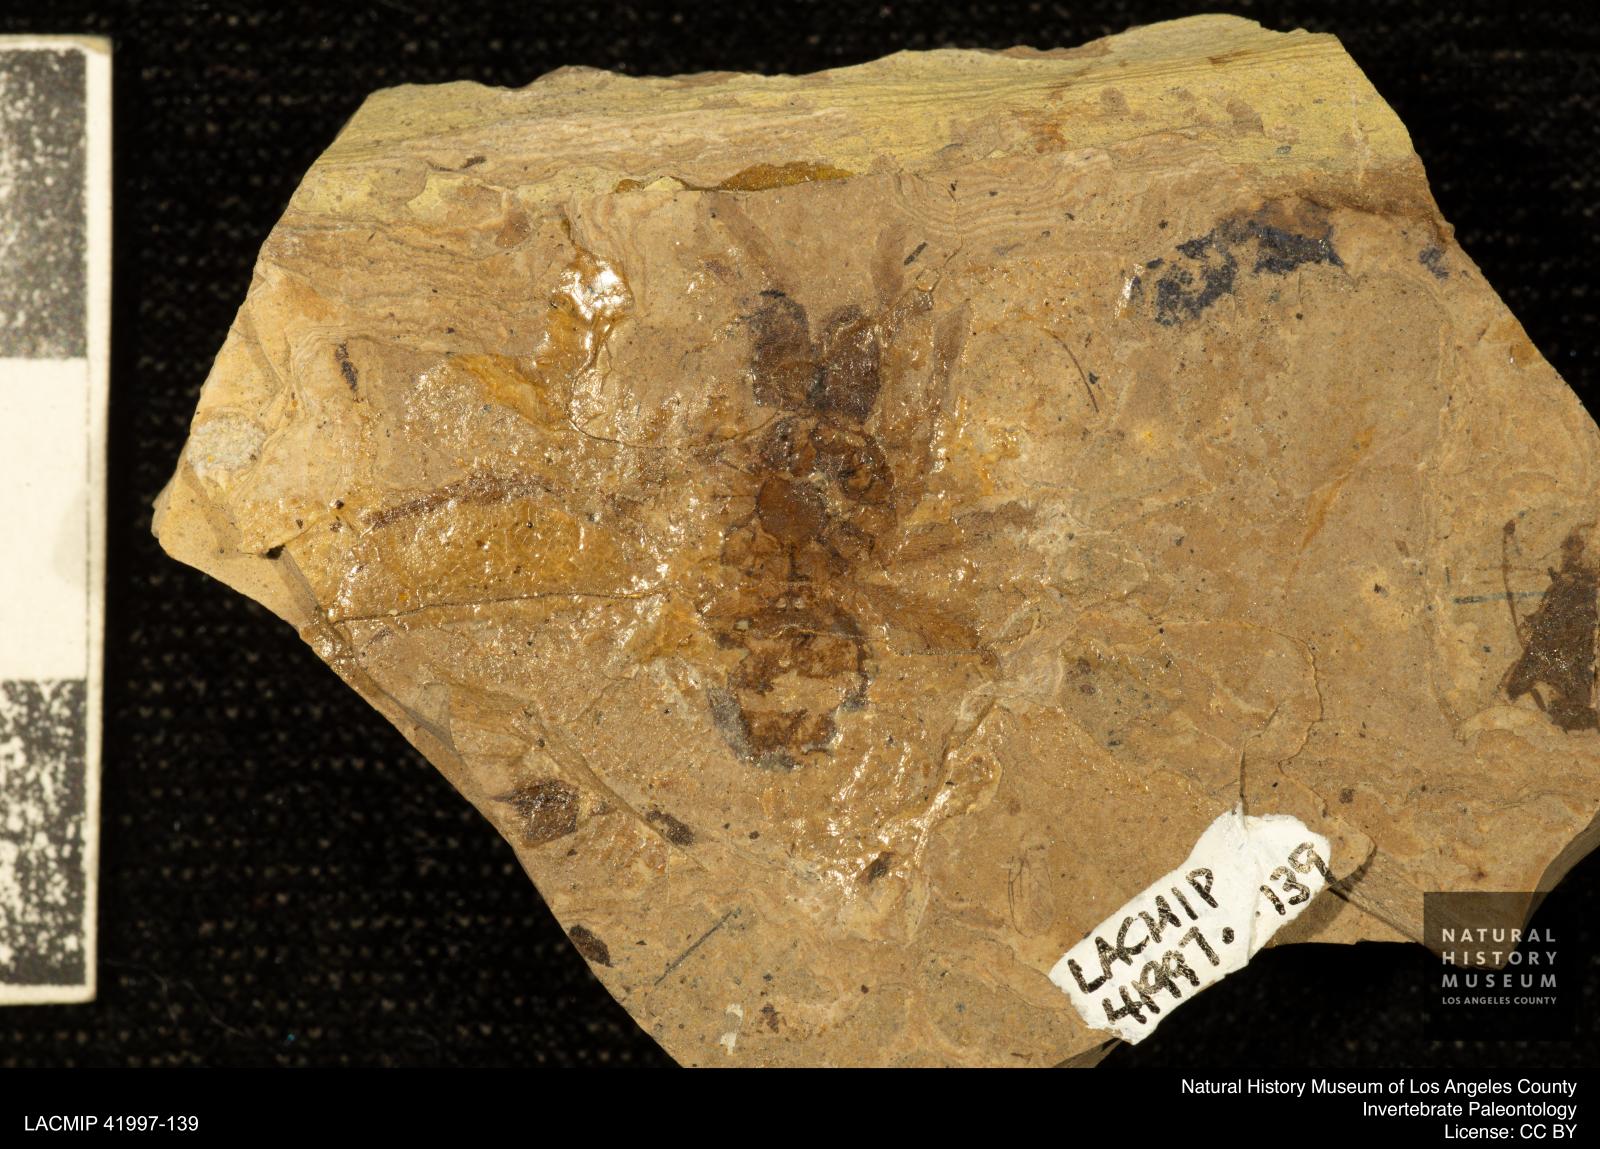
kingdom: Animalia
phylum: Arthropoda
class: Arachnida
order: Araneae
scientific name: Araneae
